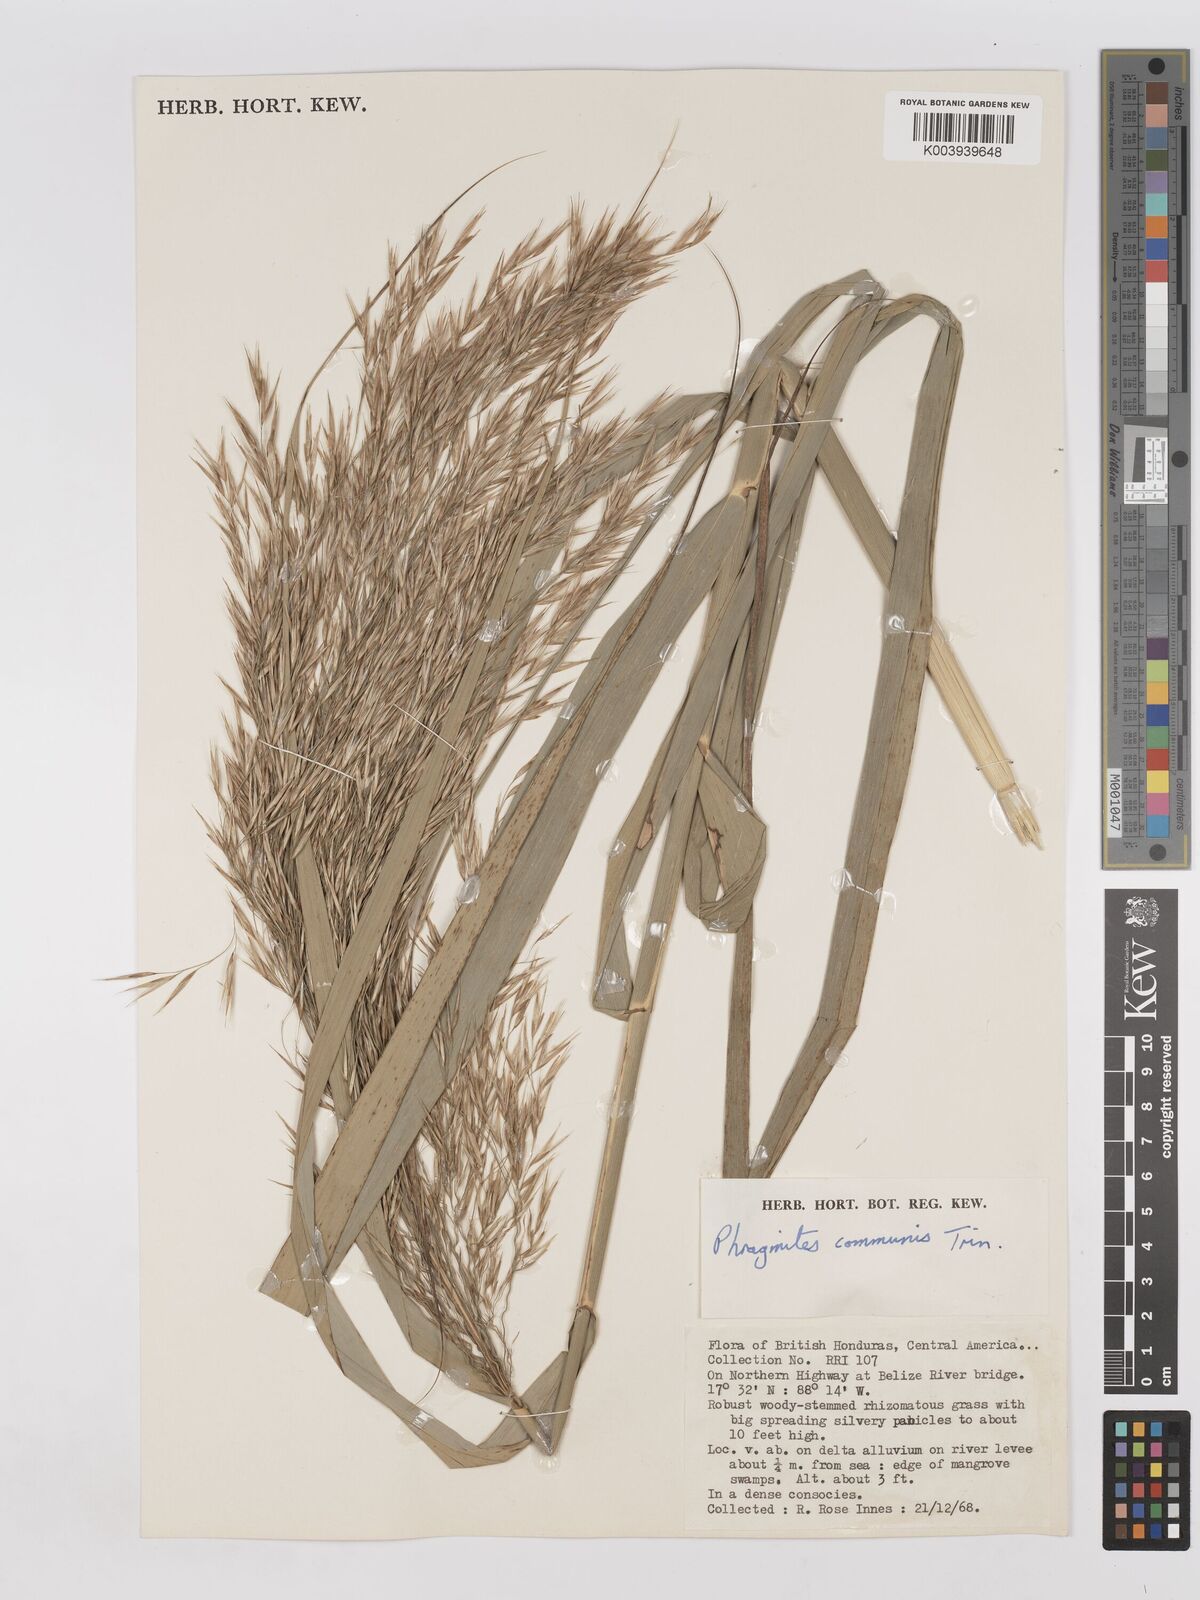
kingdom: Plantae
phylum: Tracheophyta
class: Liliopsida
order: Poales
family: Poaceae
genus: Phragmites
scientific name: Phragmites australis
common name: Common reed
